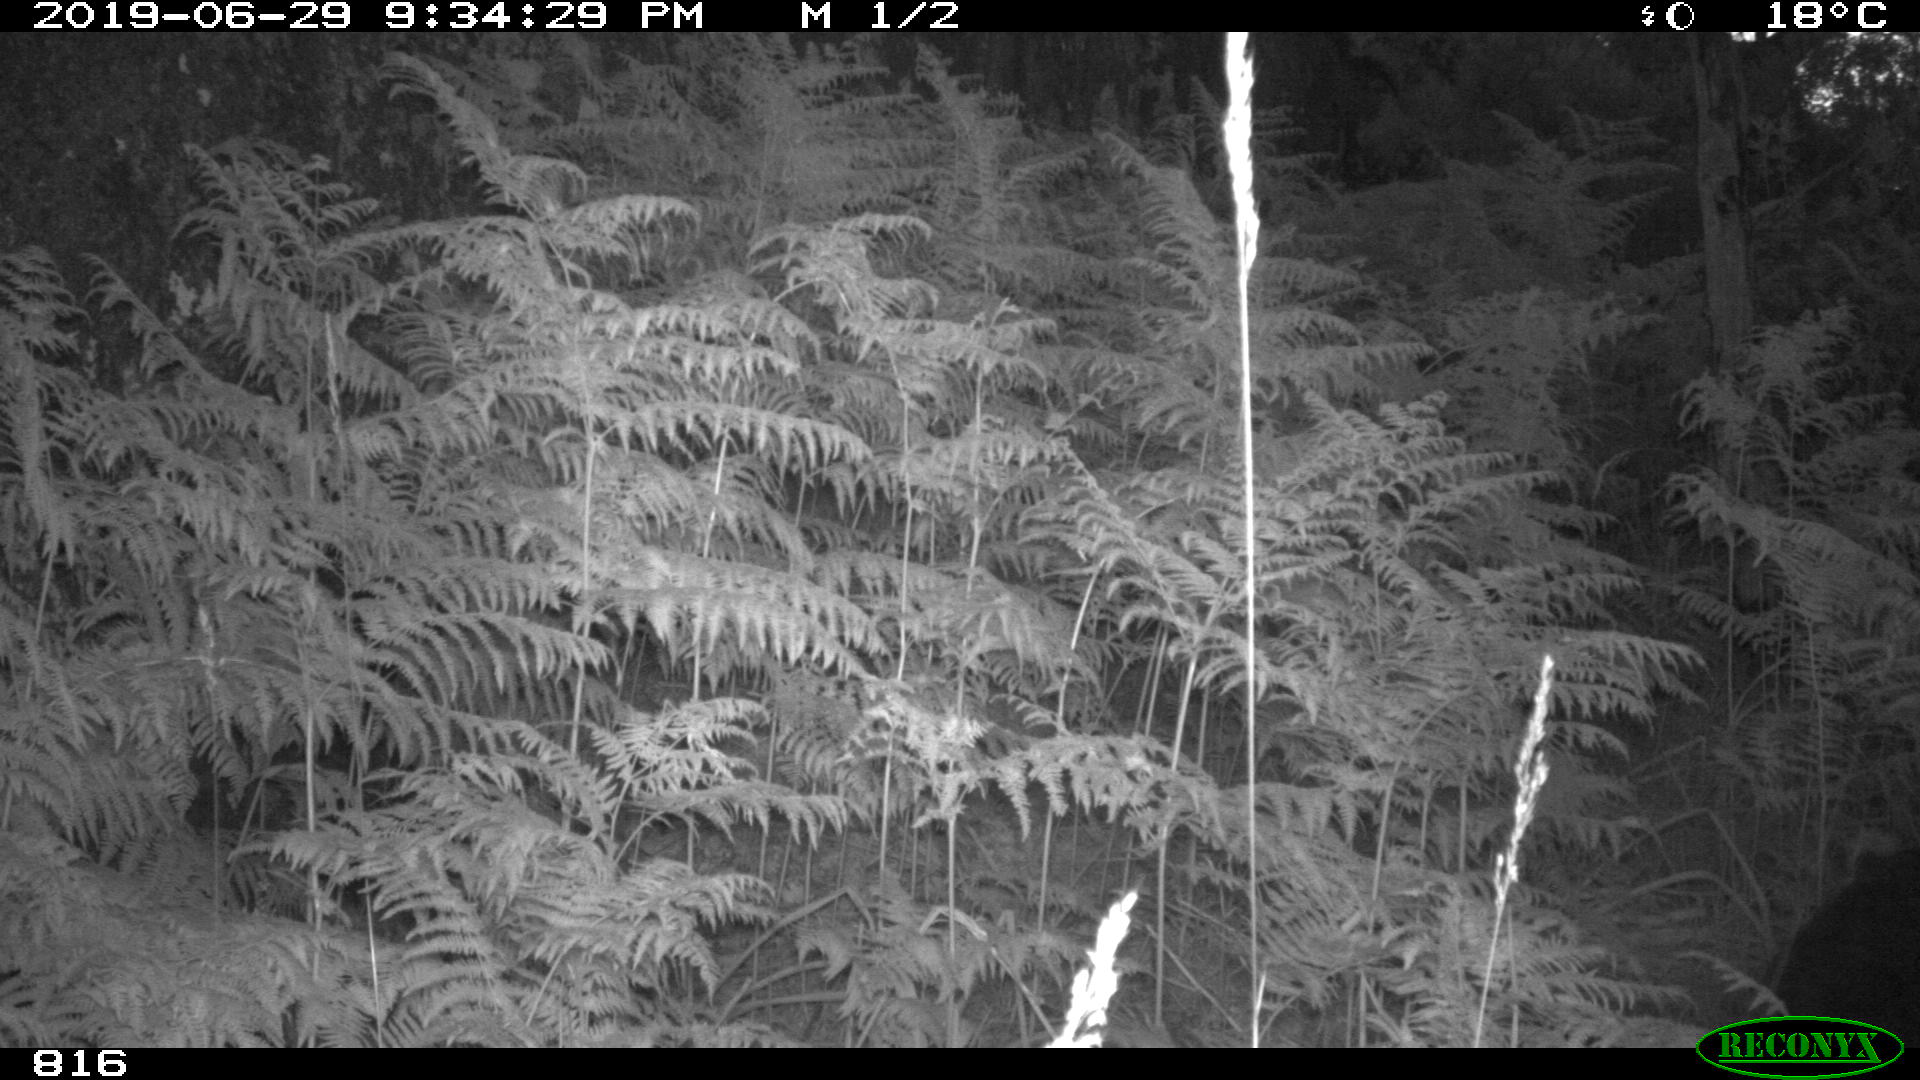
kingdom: Animalia
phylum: Chordata
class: Mammalia
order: Artiodactyla
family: Suidae
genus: Sus
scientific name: Sus scrofa
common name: Wild boar
